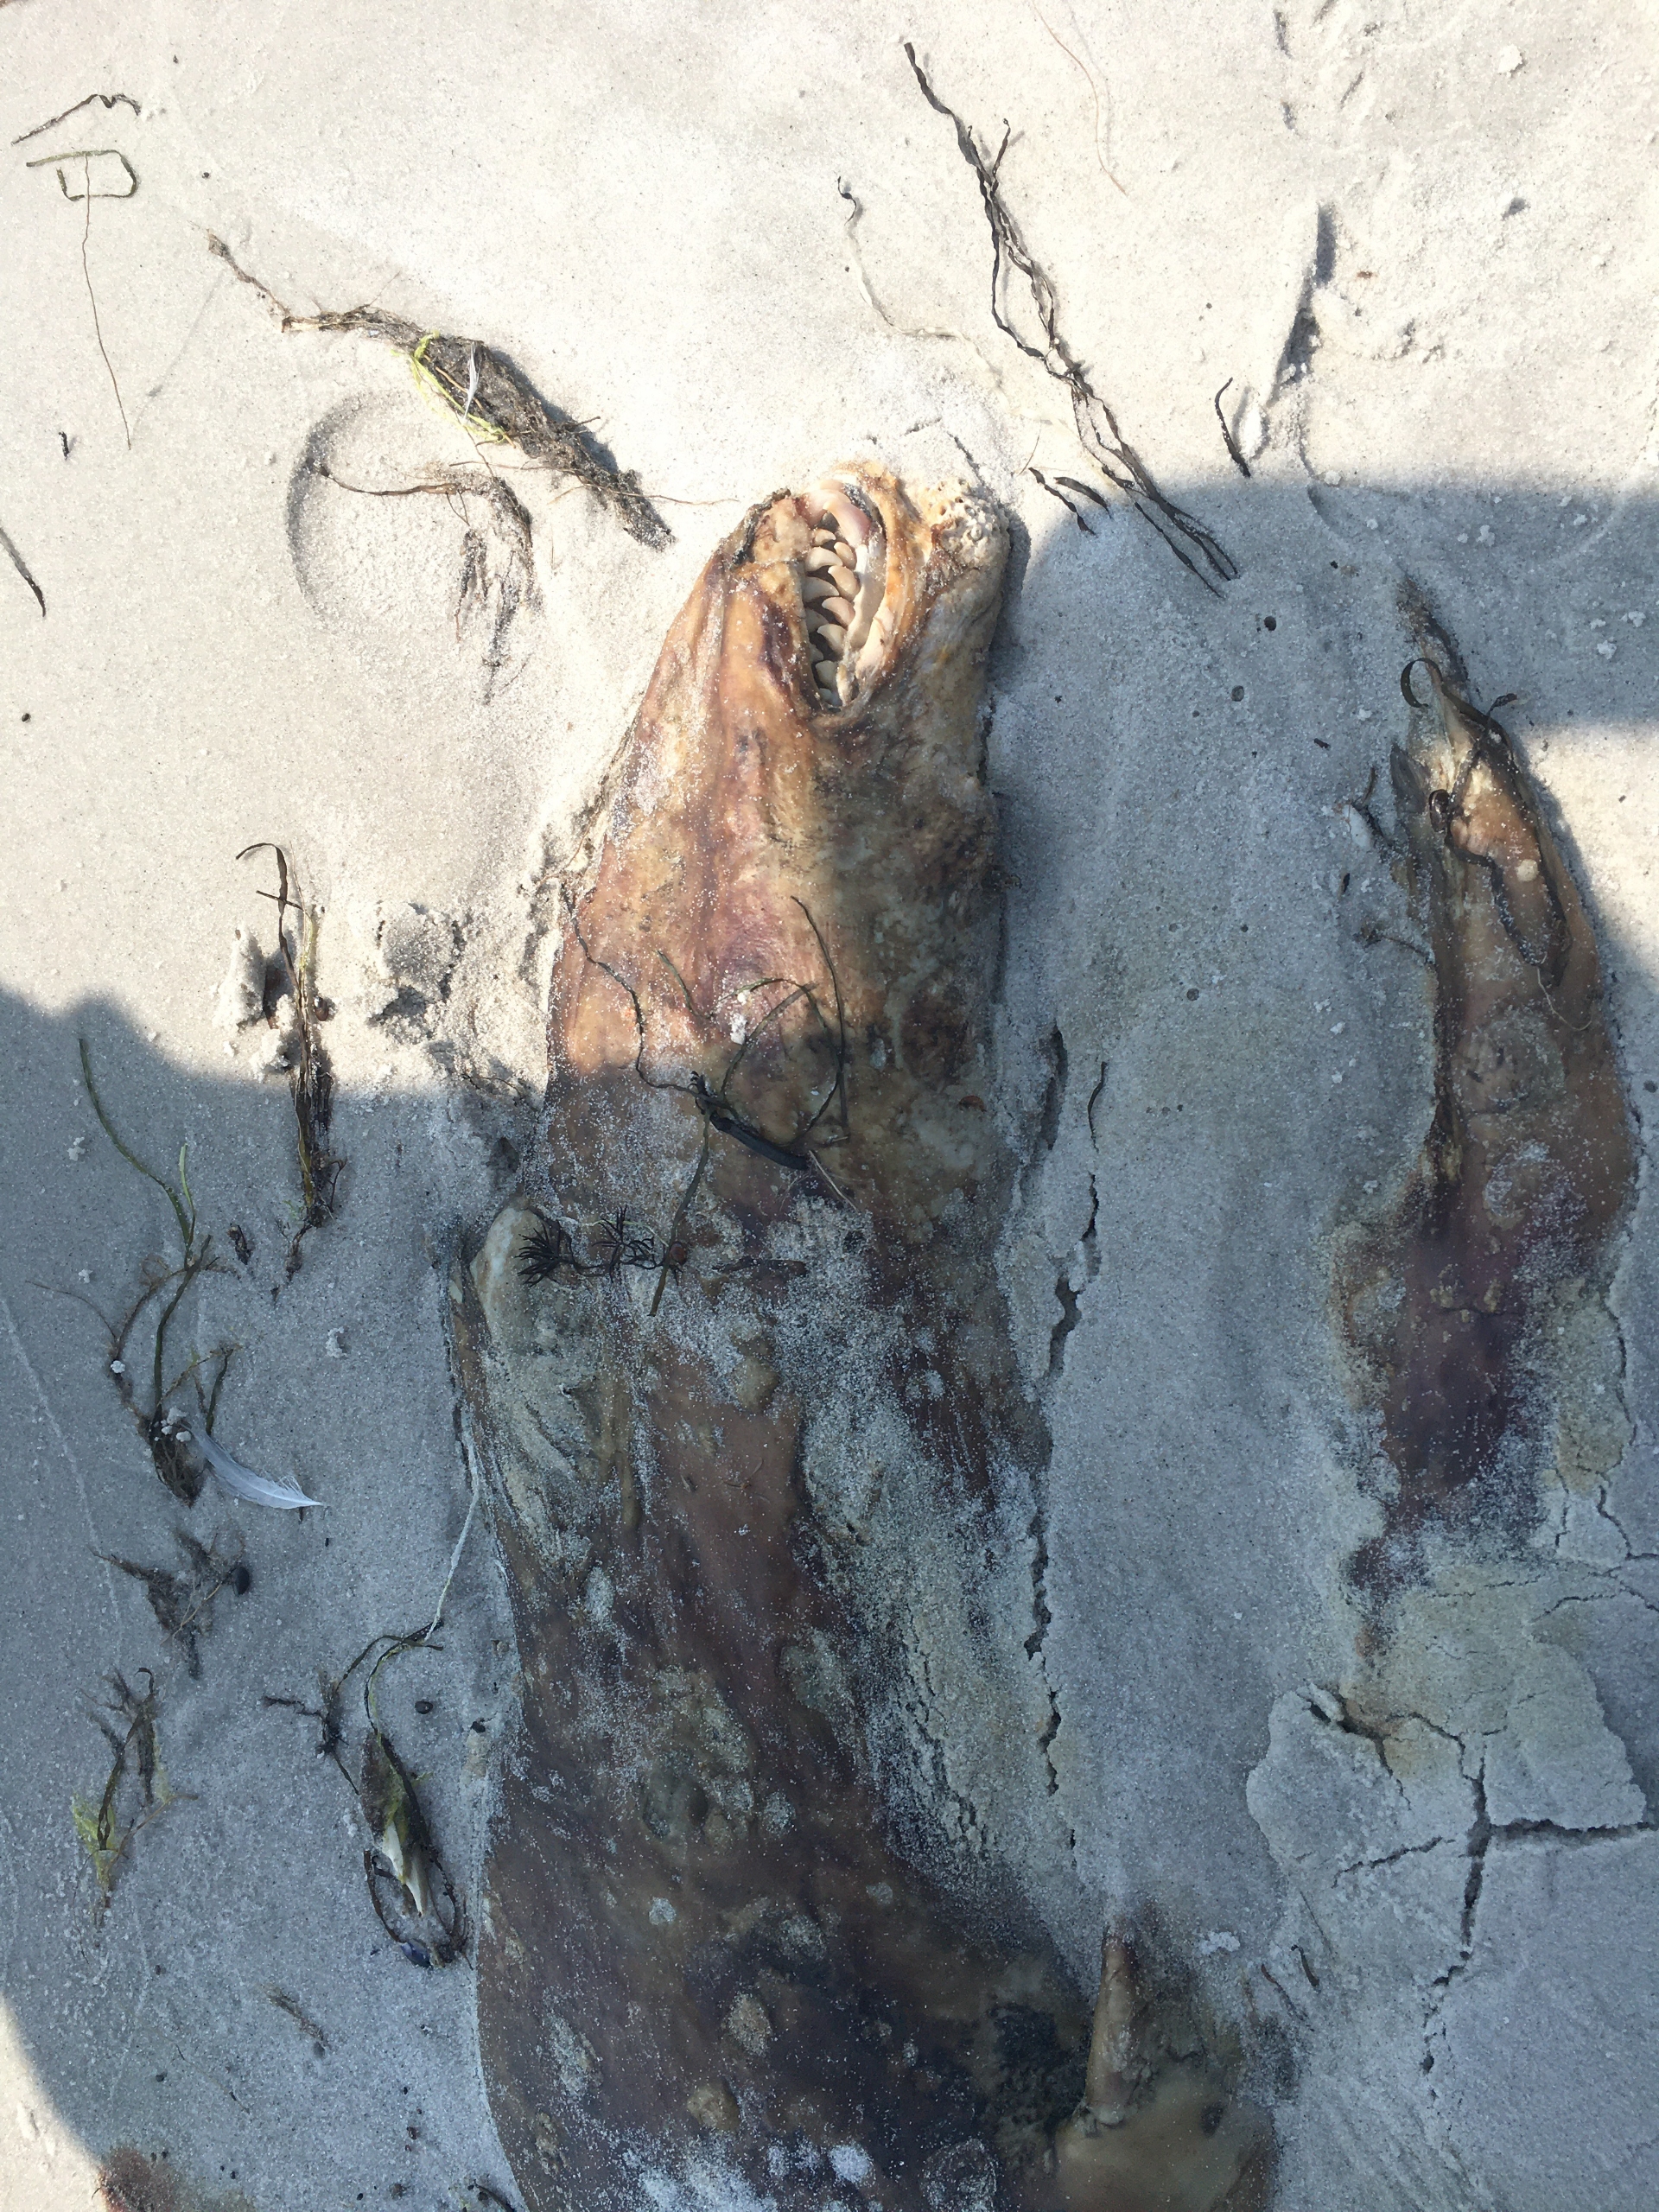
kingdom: Animalia
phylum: Chordata
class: Mammalia
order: Carnivora
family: Phocidae
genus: Halichoerus
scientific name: Halichoerus grypus
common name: Gråsæl
